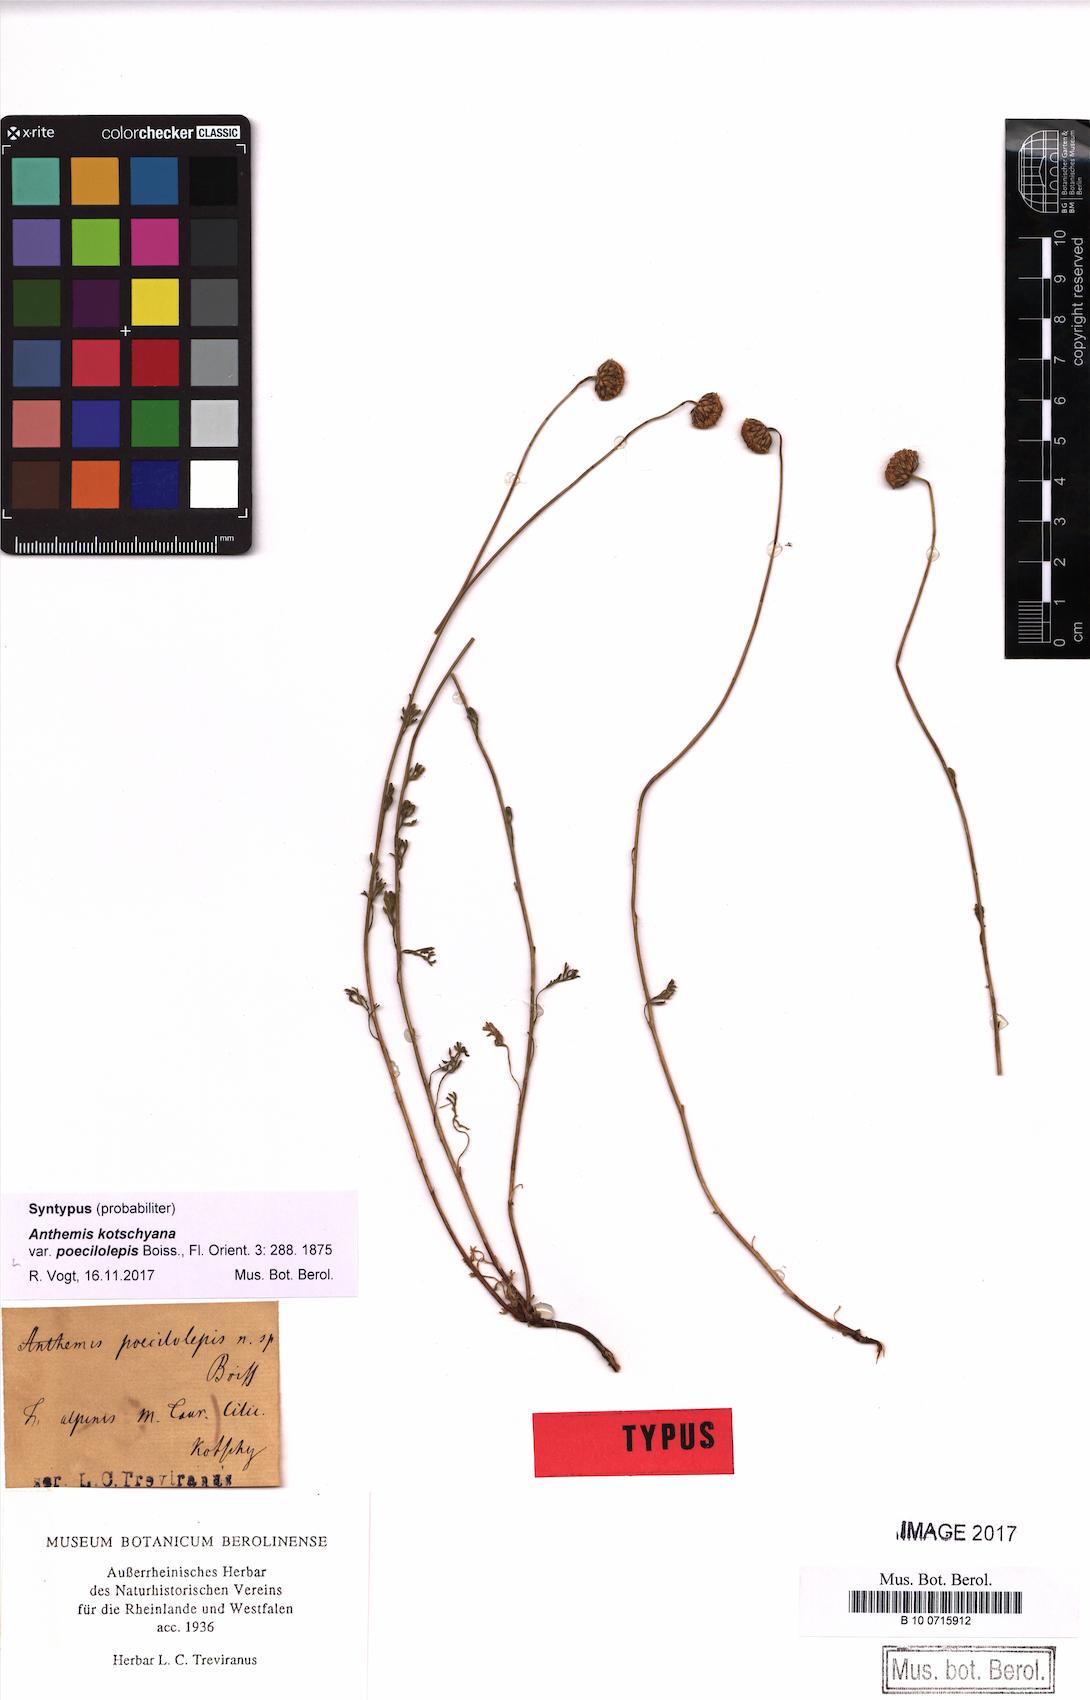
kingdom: Plantae
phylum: Tracheophyta
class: Magnoliopsida
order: Asterales
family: Asteraceae
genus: Anthemis
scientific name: Anthemis kotschyana
